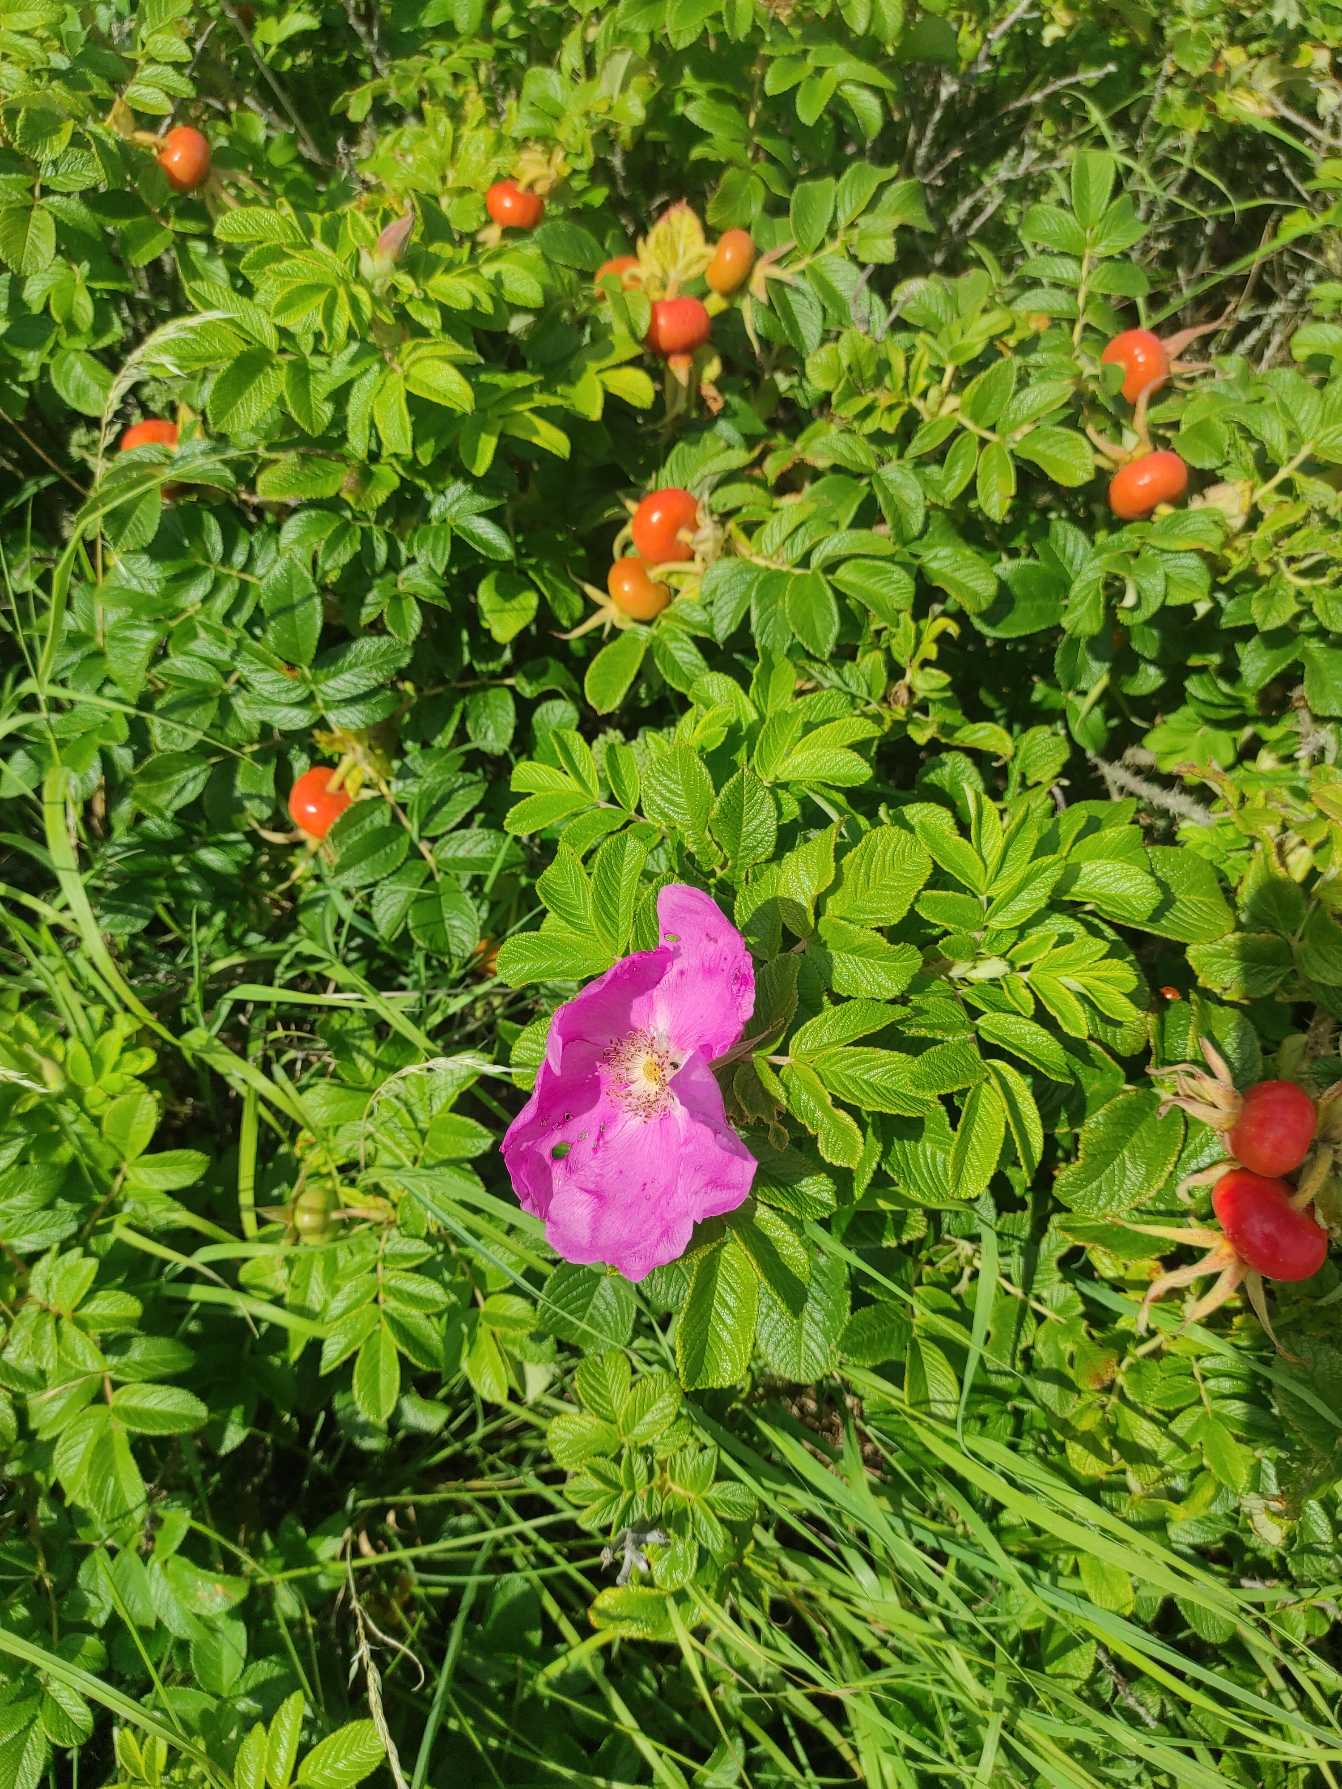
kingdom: Plantae
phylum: Tracheophyta
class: Magnoliopsida
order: Rosales
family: Rosaceae
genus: Rosa
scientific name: Rosa rugosa
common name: Rynket rose
